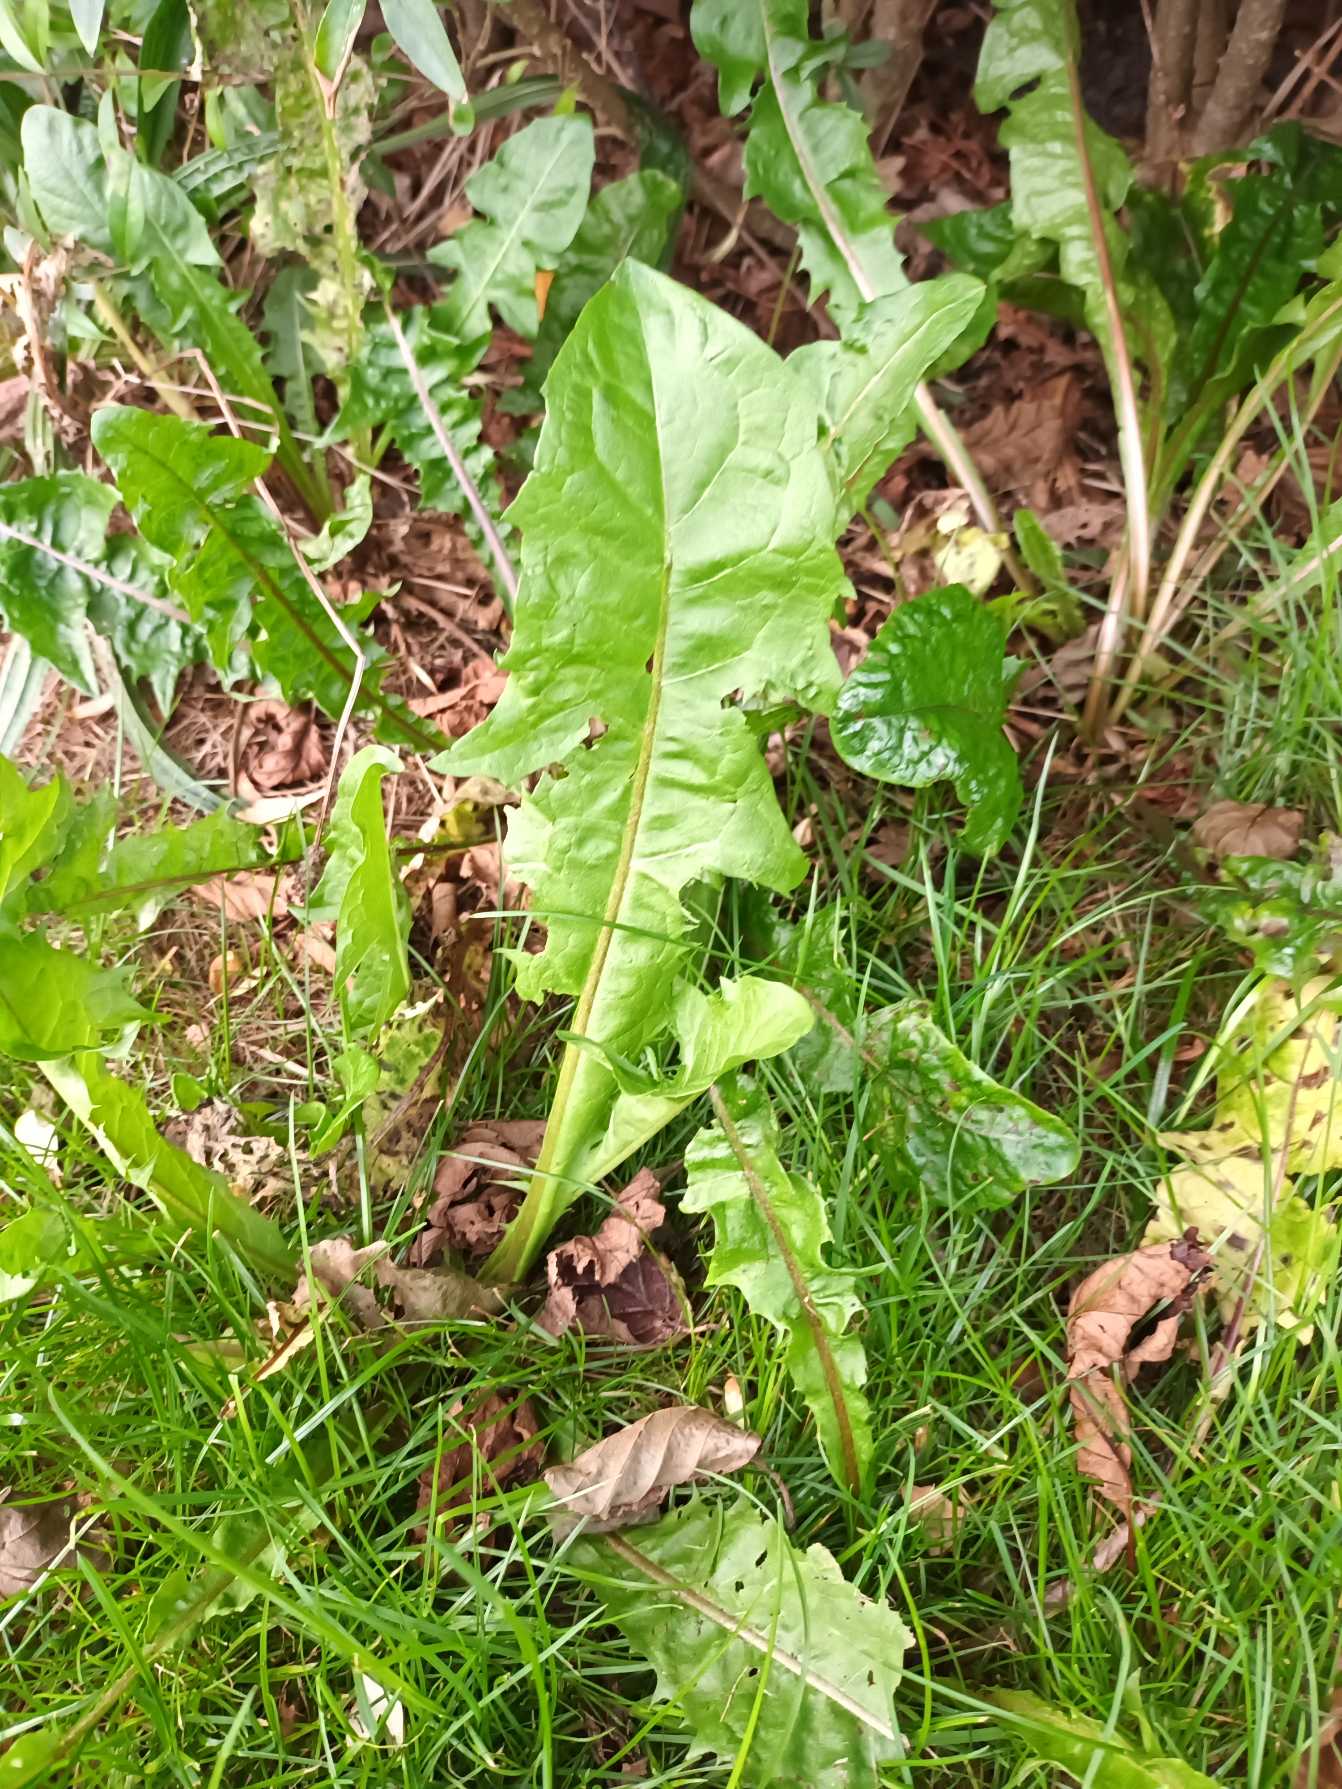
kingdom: Plantae
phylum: Tracheophyta
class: Magnoliopsida
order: Asterales
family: Asteraceae
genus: Taraxacum
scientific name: Taraxacum
